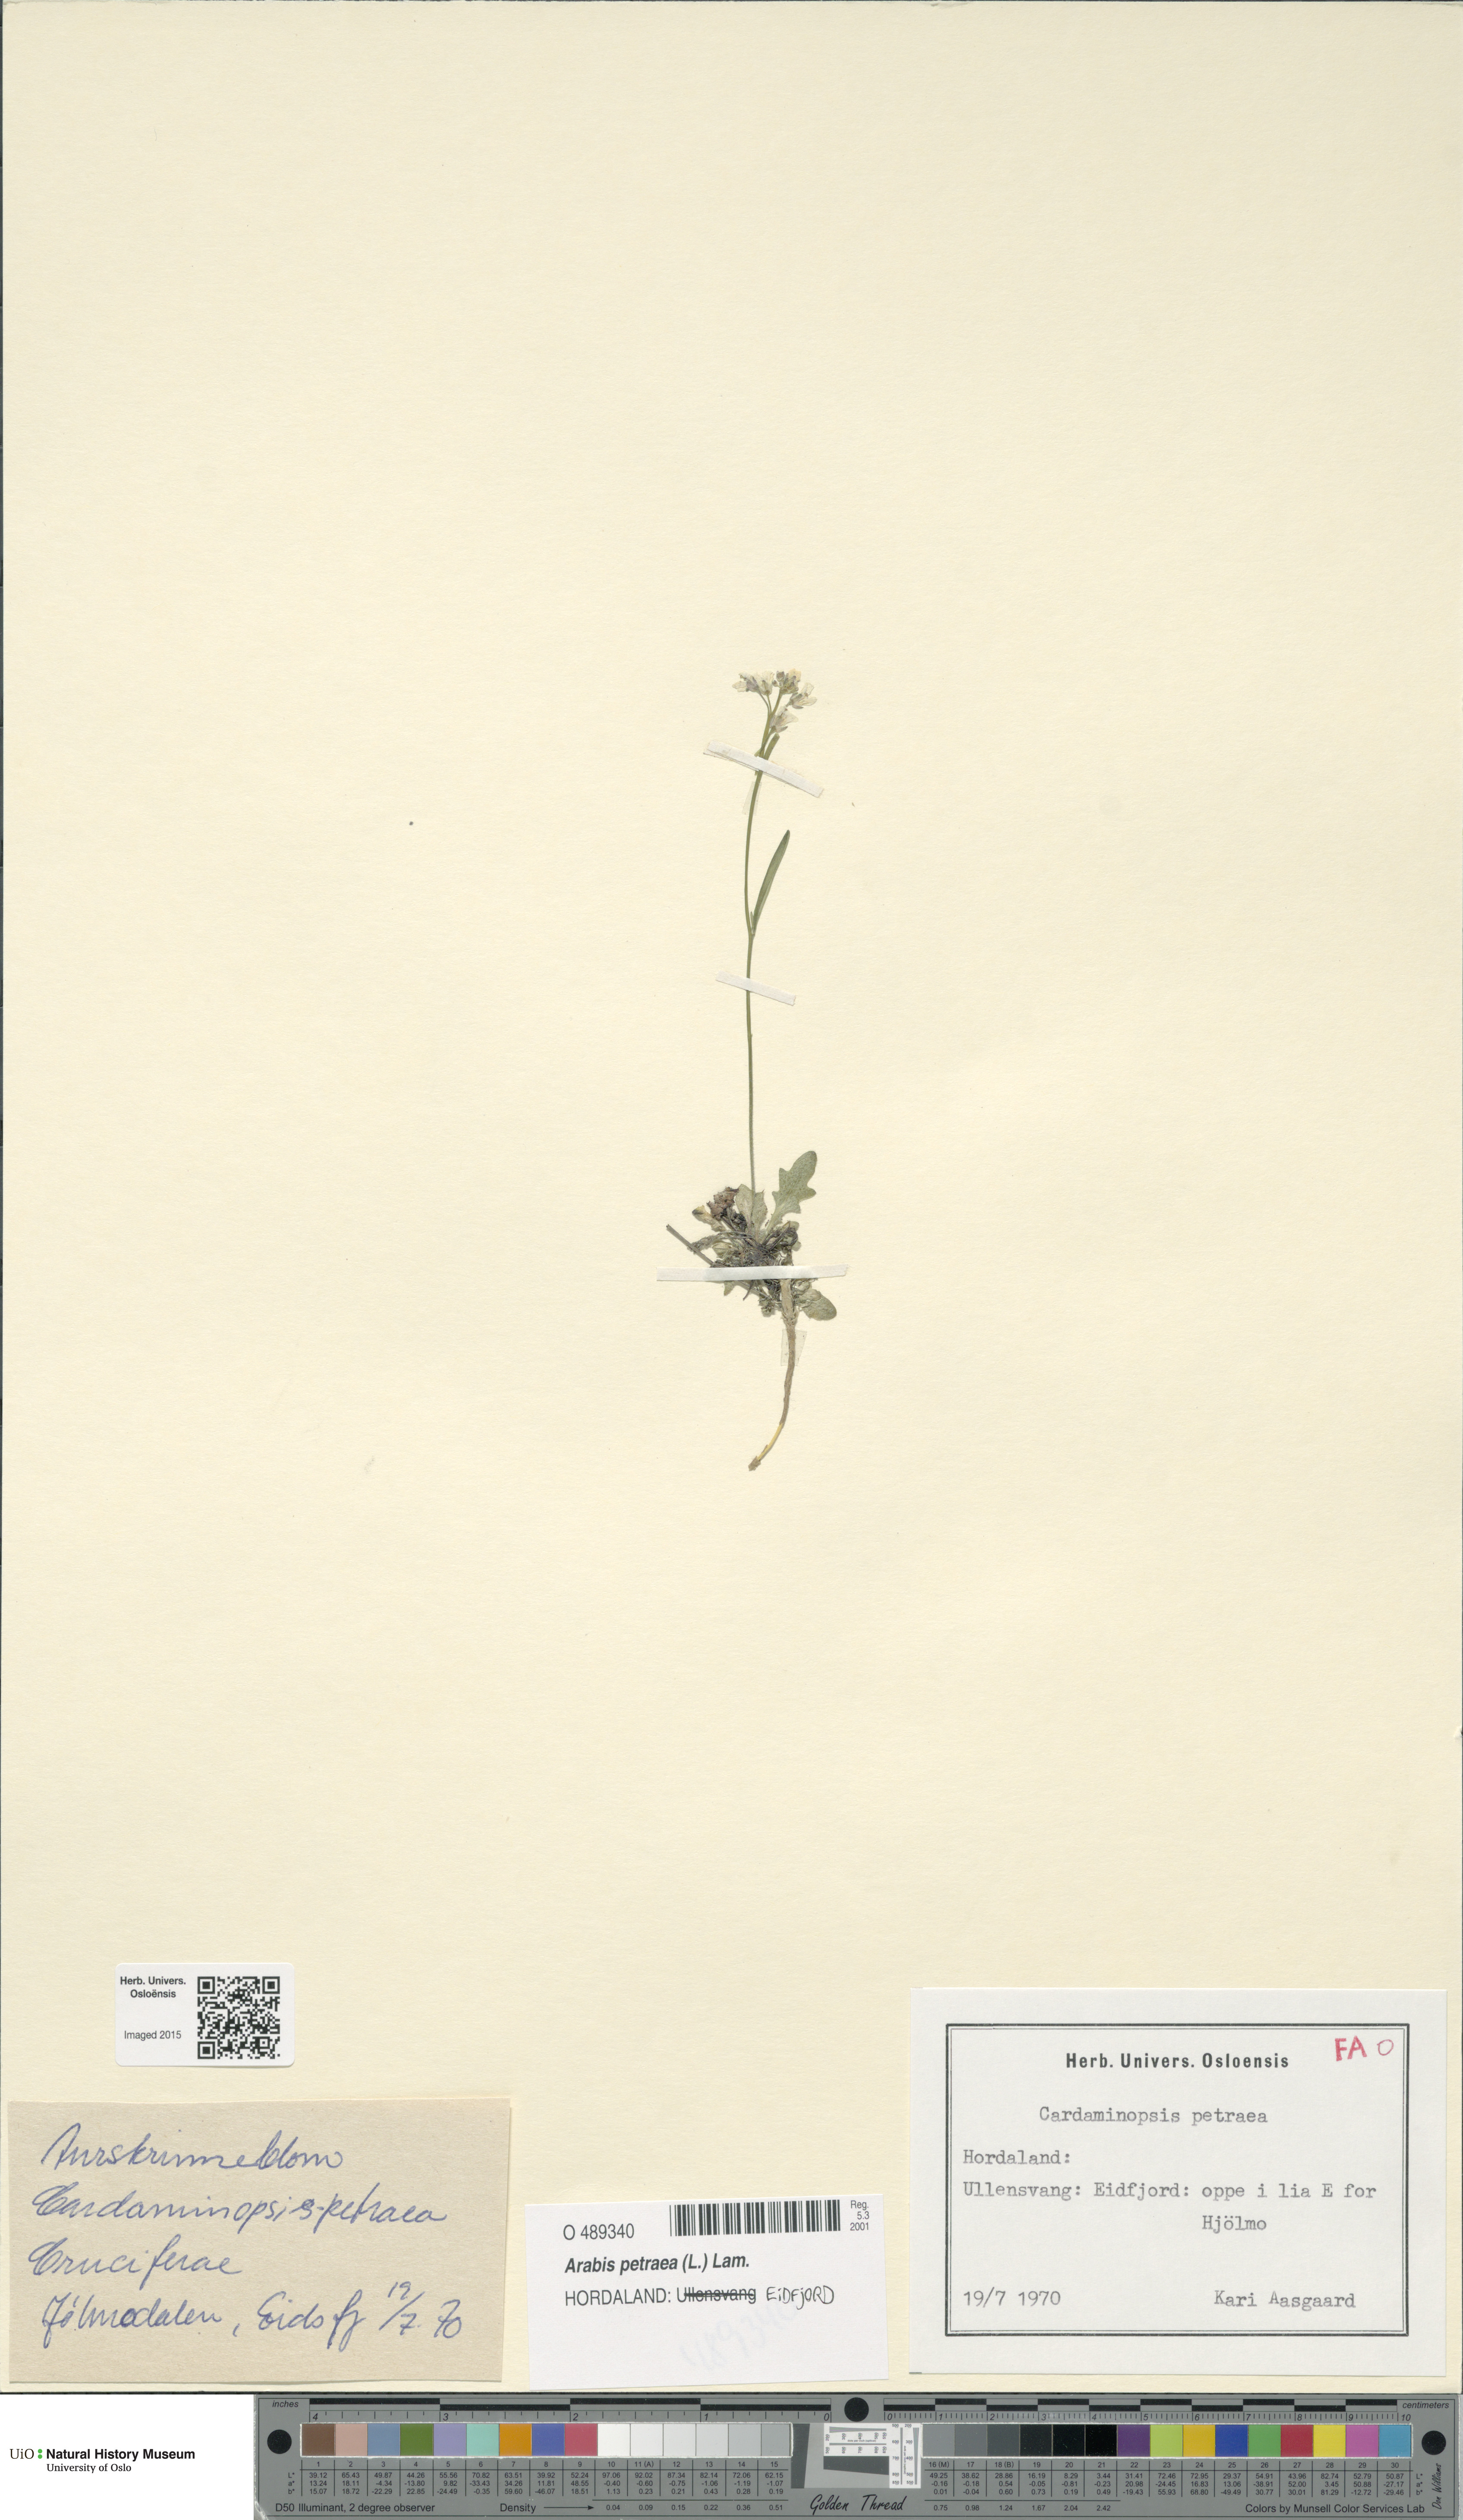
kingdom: Plantae
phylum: Tracheophyta
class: Magnoliopsida
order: Brassicales
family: Brassicaceae
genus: Arabidopsis
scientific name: Arabidopsis petraea
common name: Northern rock-cress
